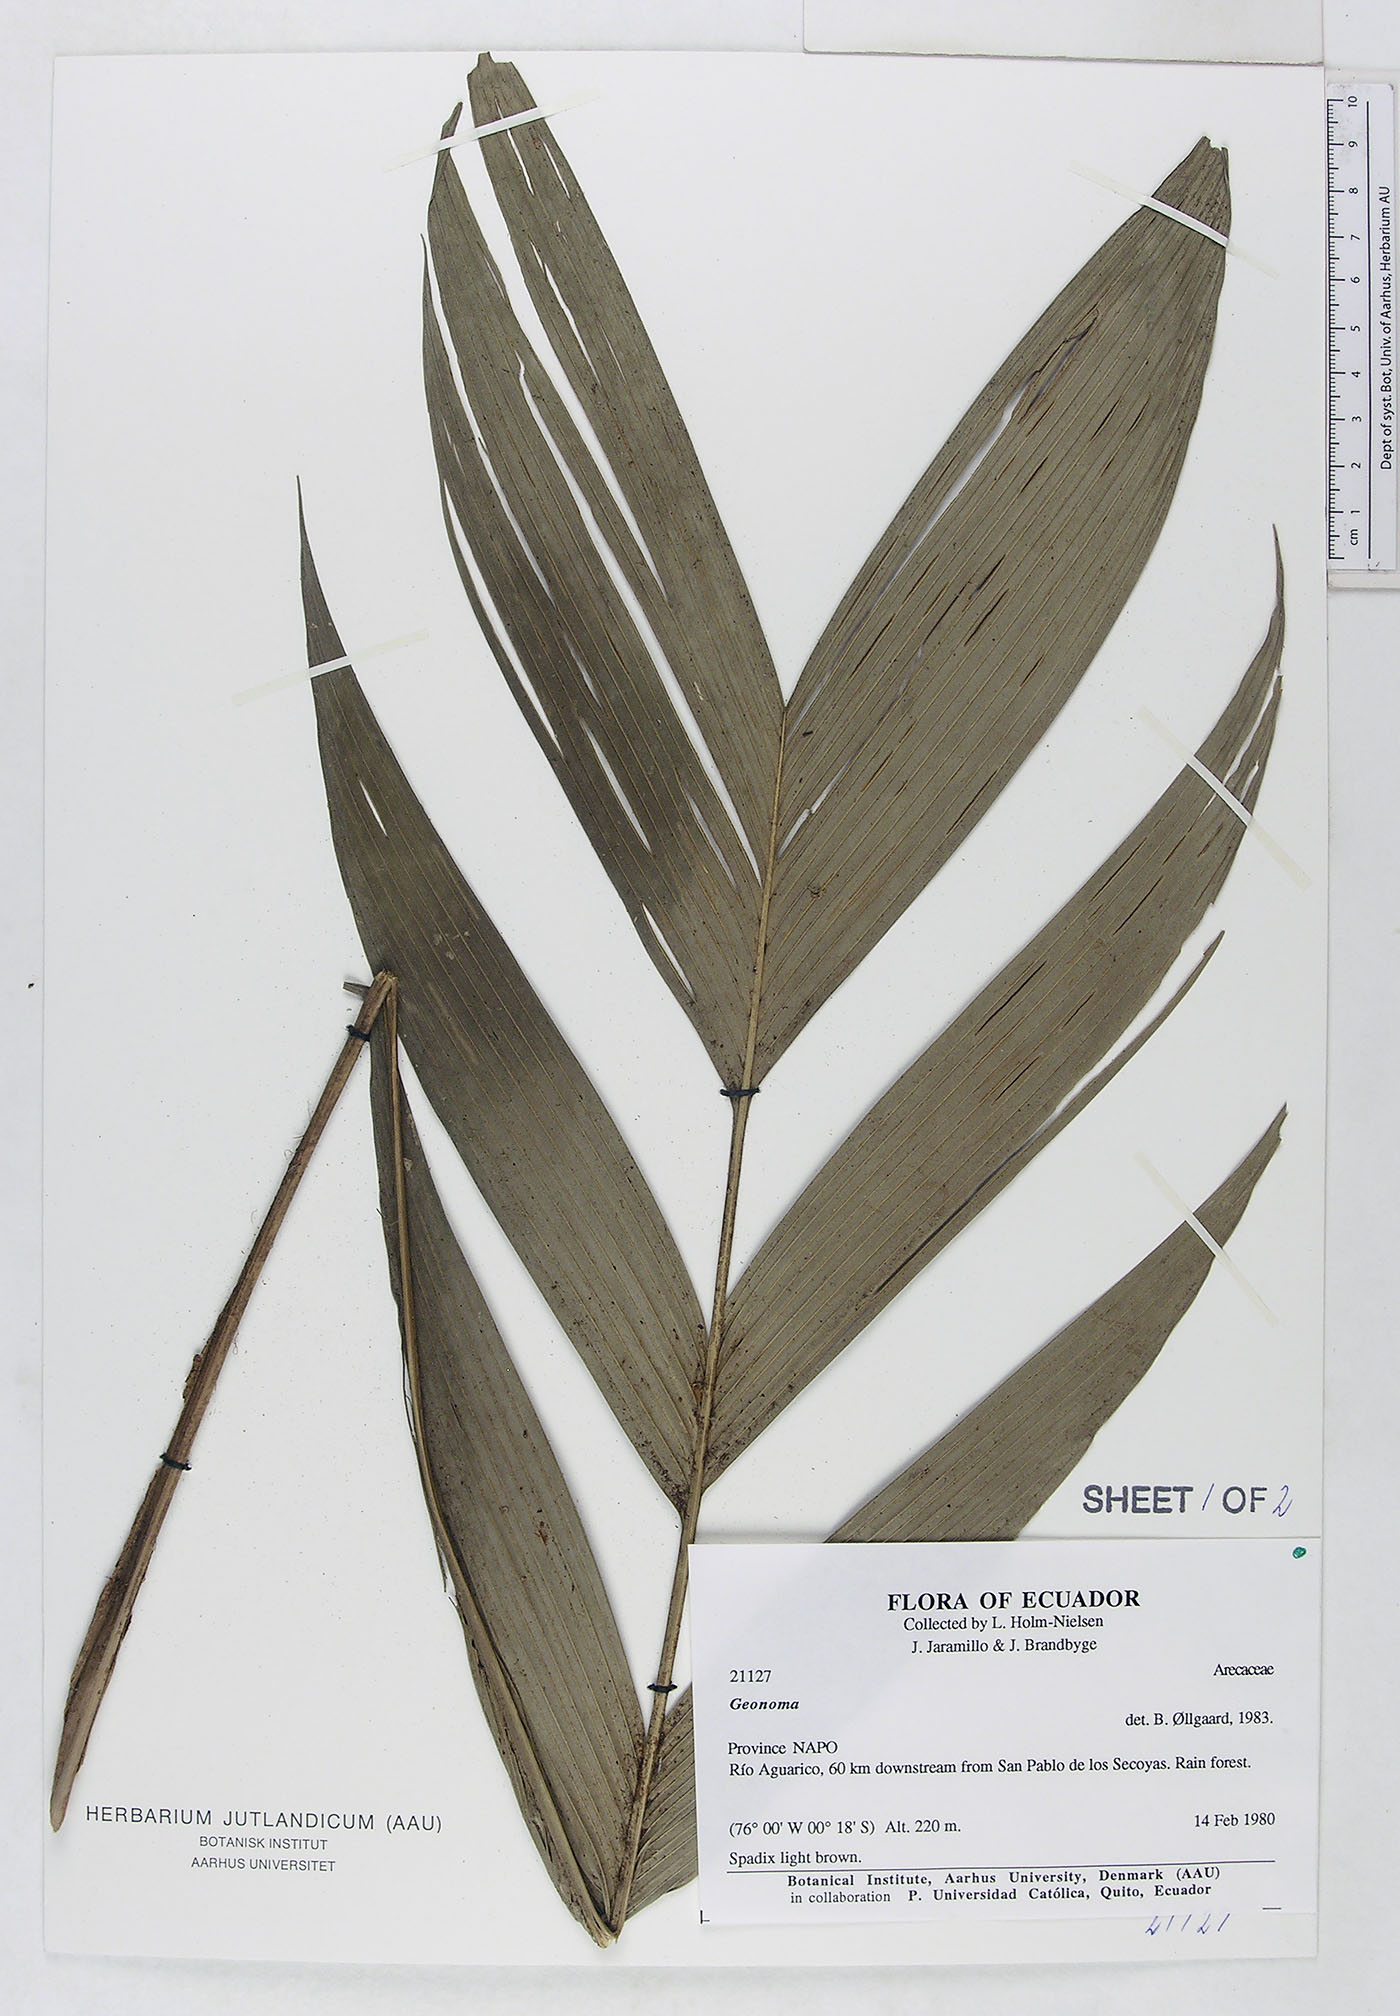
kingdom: Plantae
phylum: Tracheophyta
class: Liliopsida
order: Arecales
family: Arecaceae
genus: Geonoma
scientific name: Geonoma
